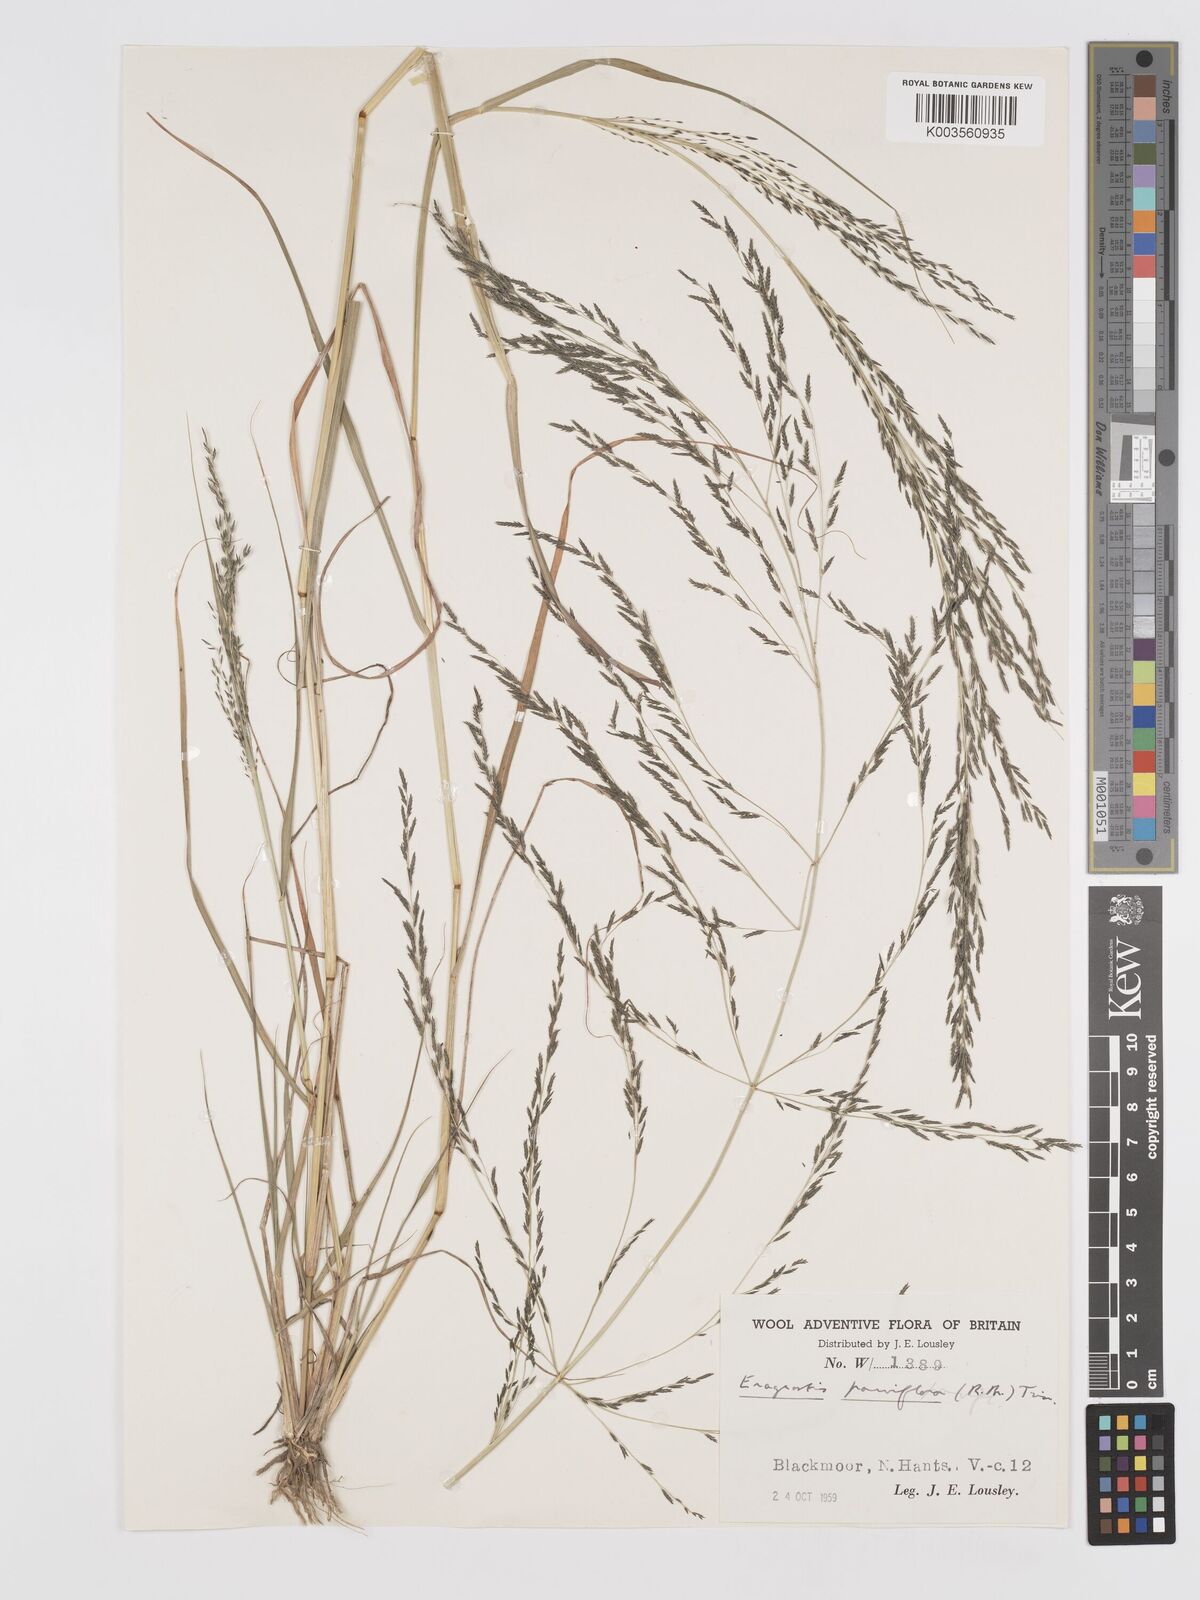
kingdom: Plantae
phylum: Tracheophyta
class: Liliopsida
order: Poales
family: Poaceae
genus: Eragrostis
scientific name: Eragrostis parviflora
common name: Weeping love-grass
